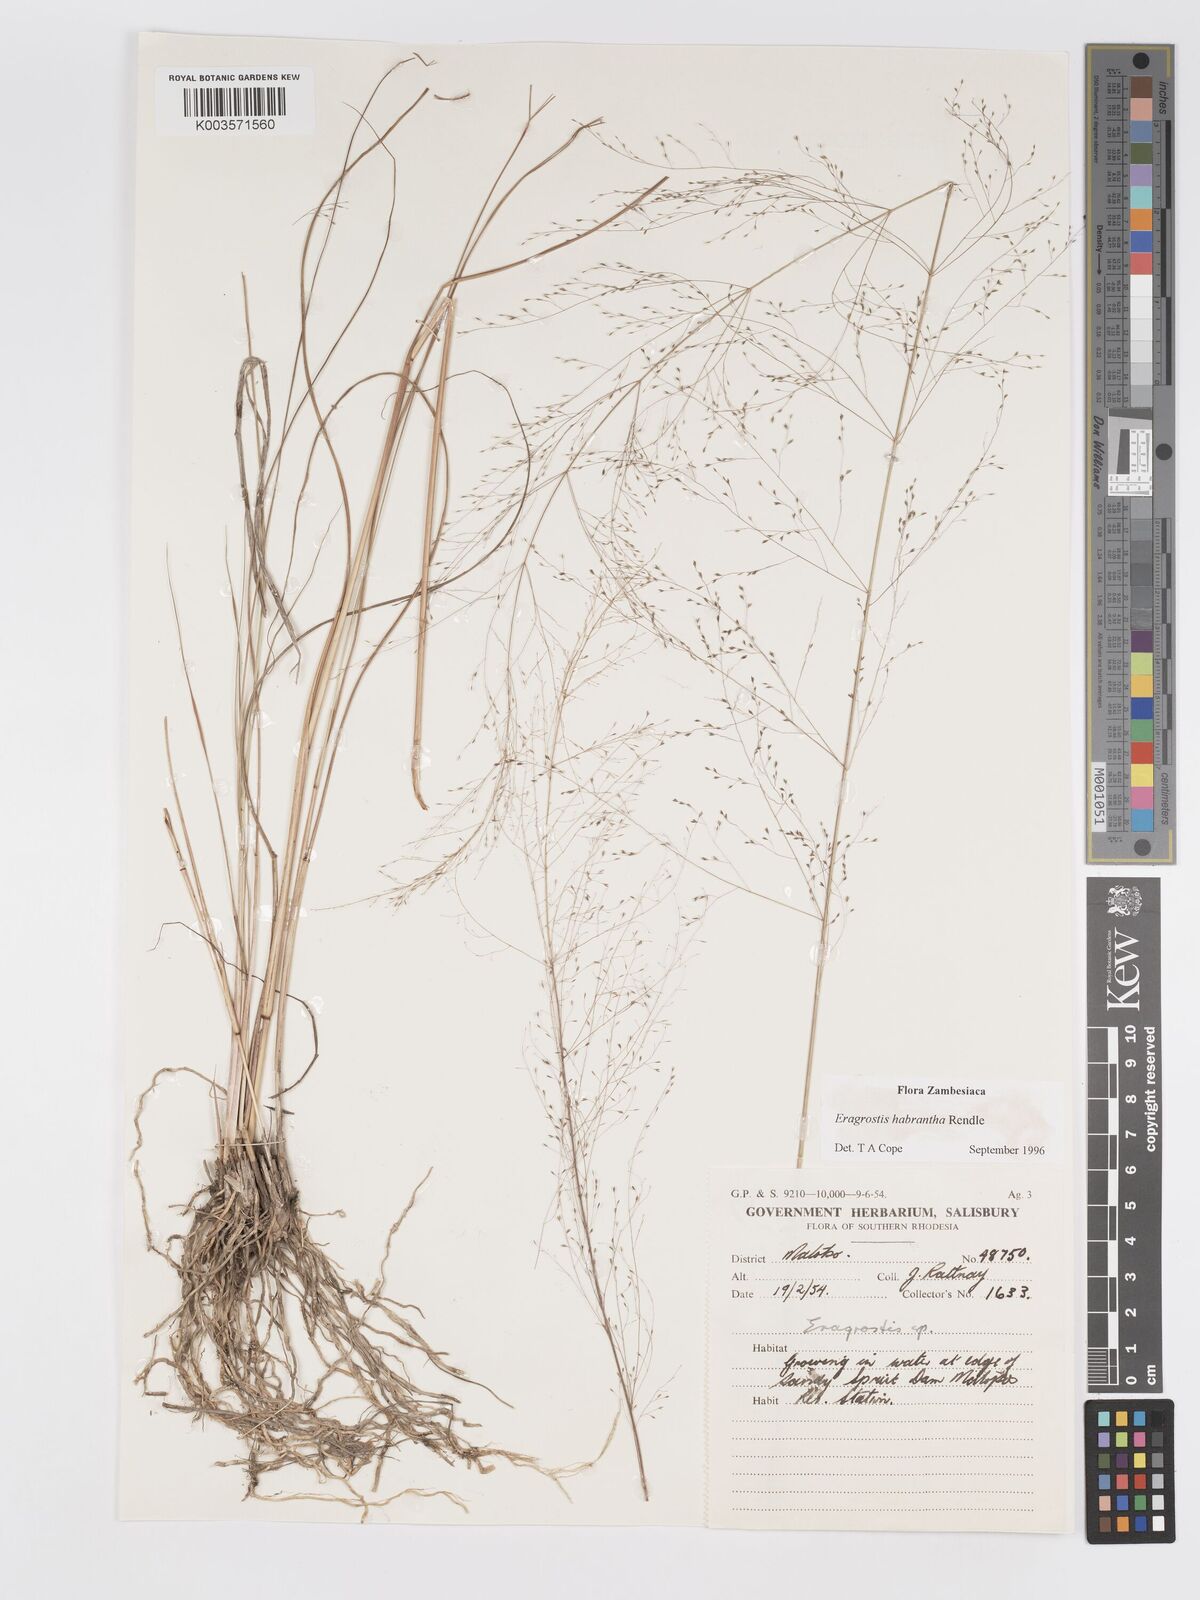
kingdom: Plantae
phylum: Tracheophyta
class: Liliopsida
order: Poales
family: Poaceae
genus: Eragrostis
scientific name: Eragrostis habrantha
